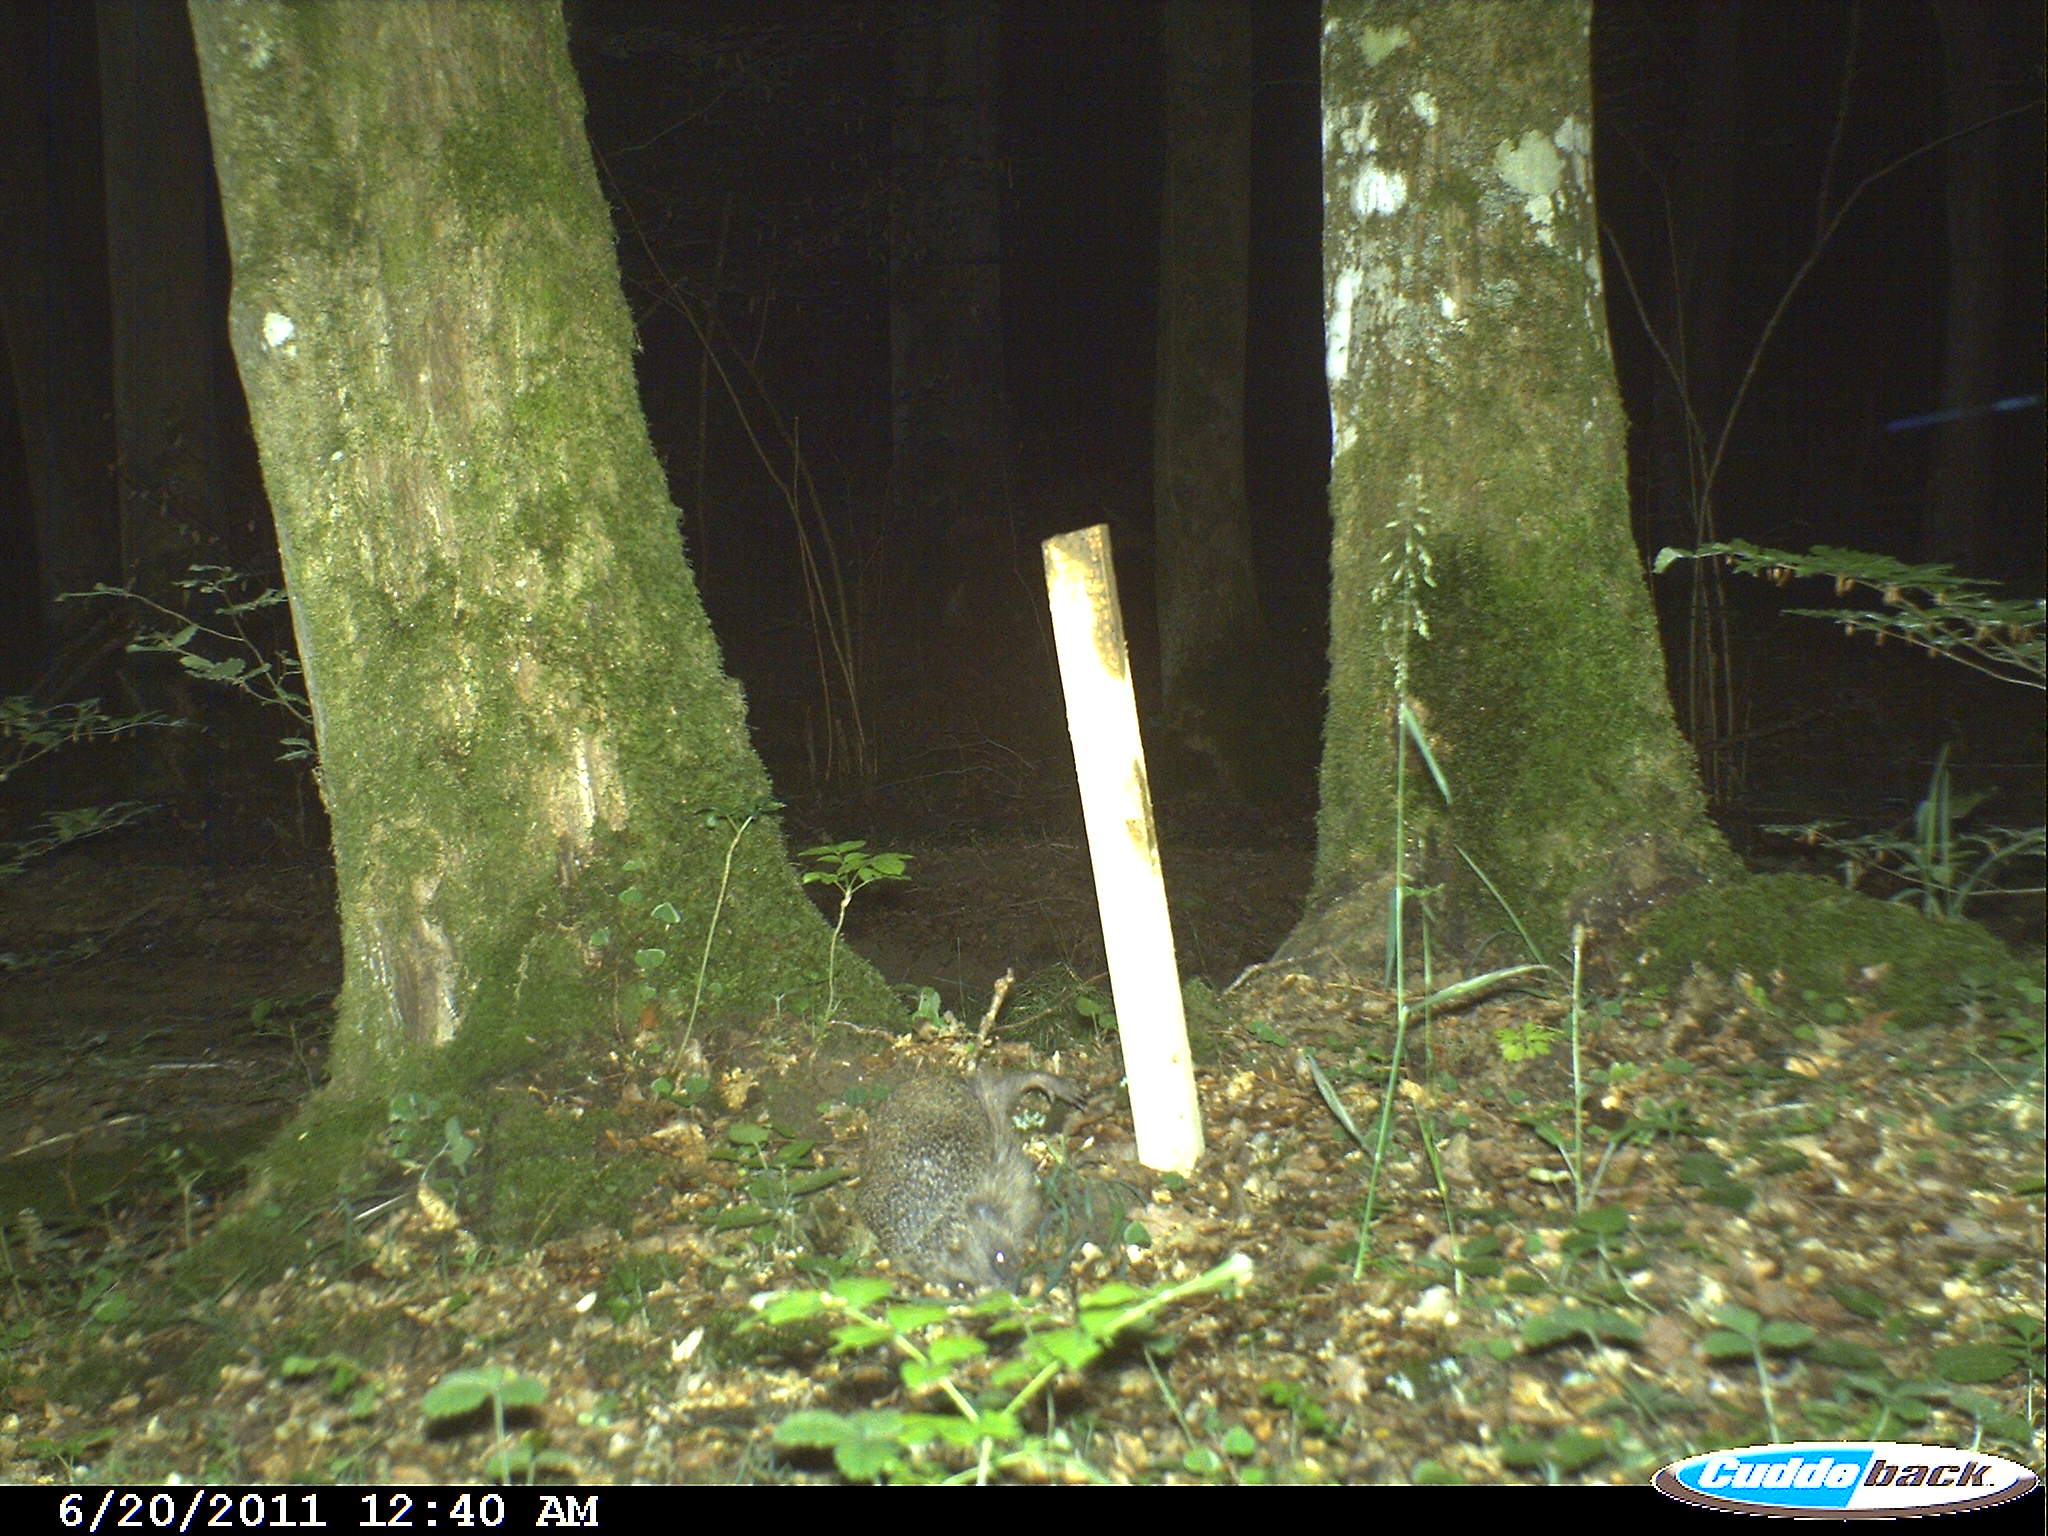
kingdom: Animalia
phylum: Chordata
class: Mammalia
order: Erinaceomorpha
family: Erinaceidae
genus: Erinaceus
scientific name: Erinaceus europaeus
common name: West european hedgehog
